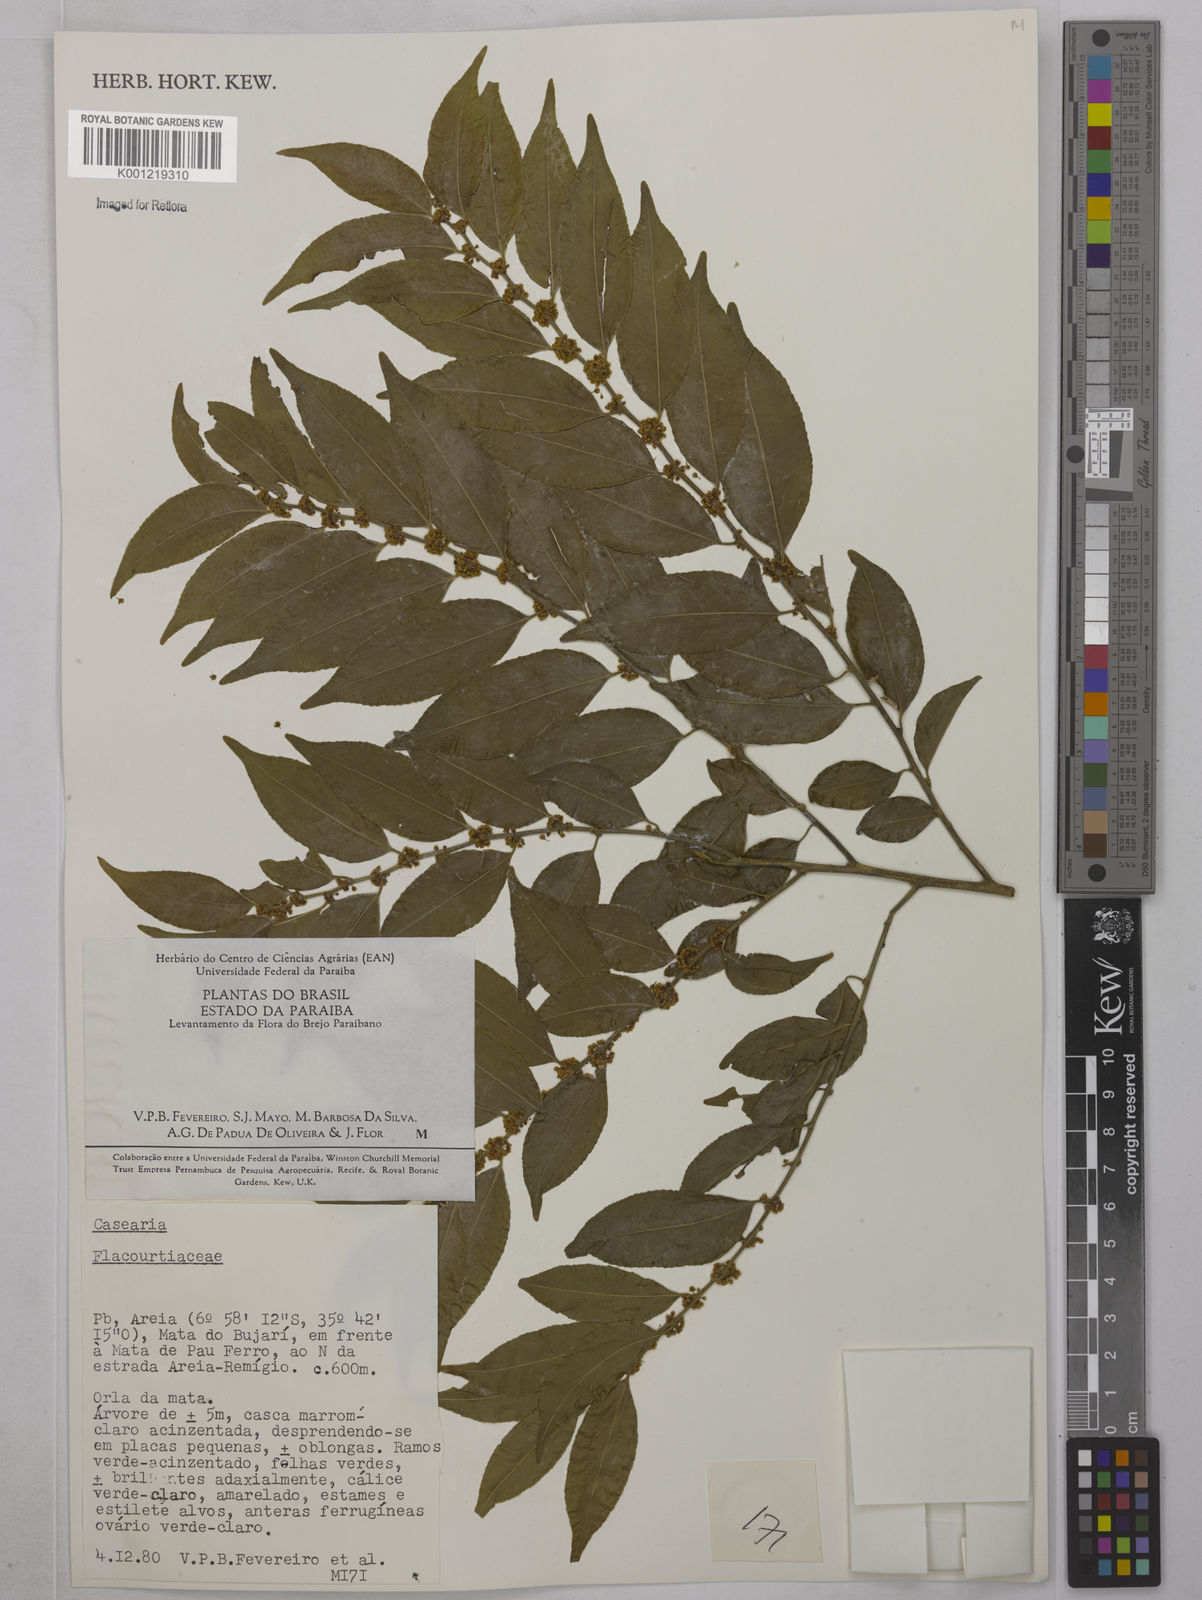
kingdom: Plantae
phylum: Tracheophyta
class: Magnoliopsida
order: Malpighiales
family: Salicaceae
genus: Casearia
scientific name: Casearia
